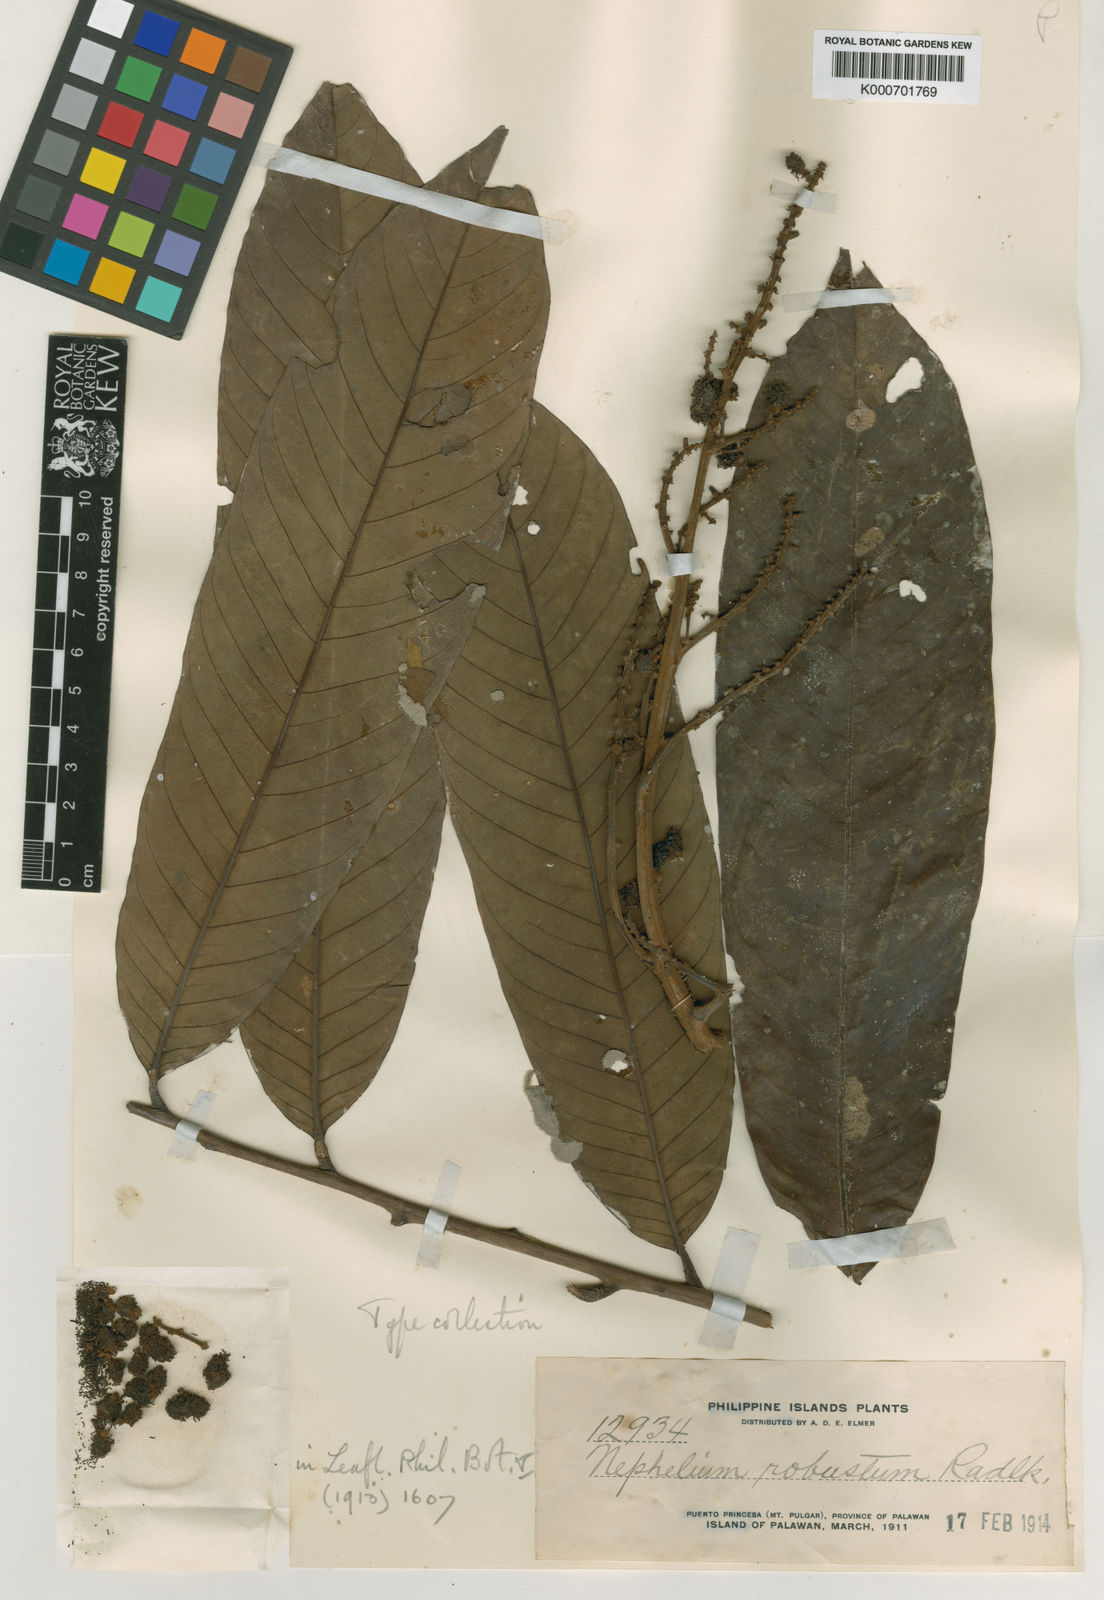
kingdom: Plantae
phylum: Tracheophyta
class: Magnoliopsida
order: Sapindales
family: Sapindaceae
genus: Nephelium
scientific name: Nephelium cuspidatum
